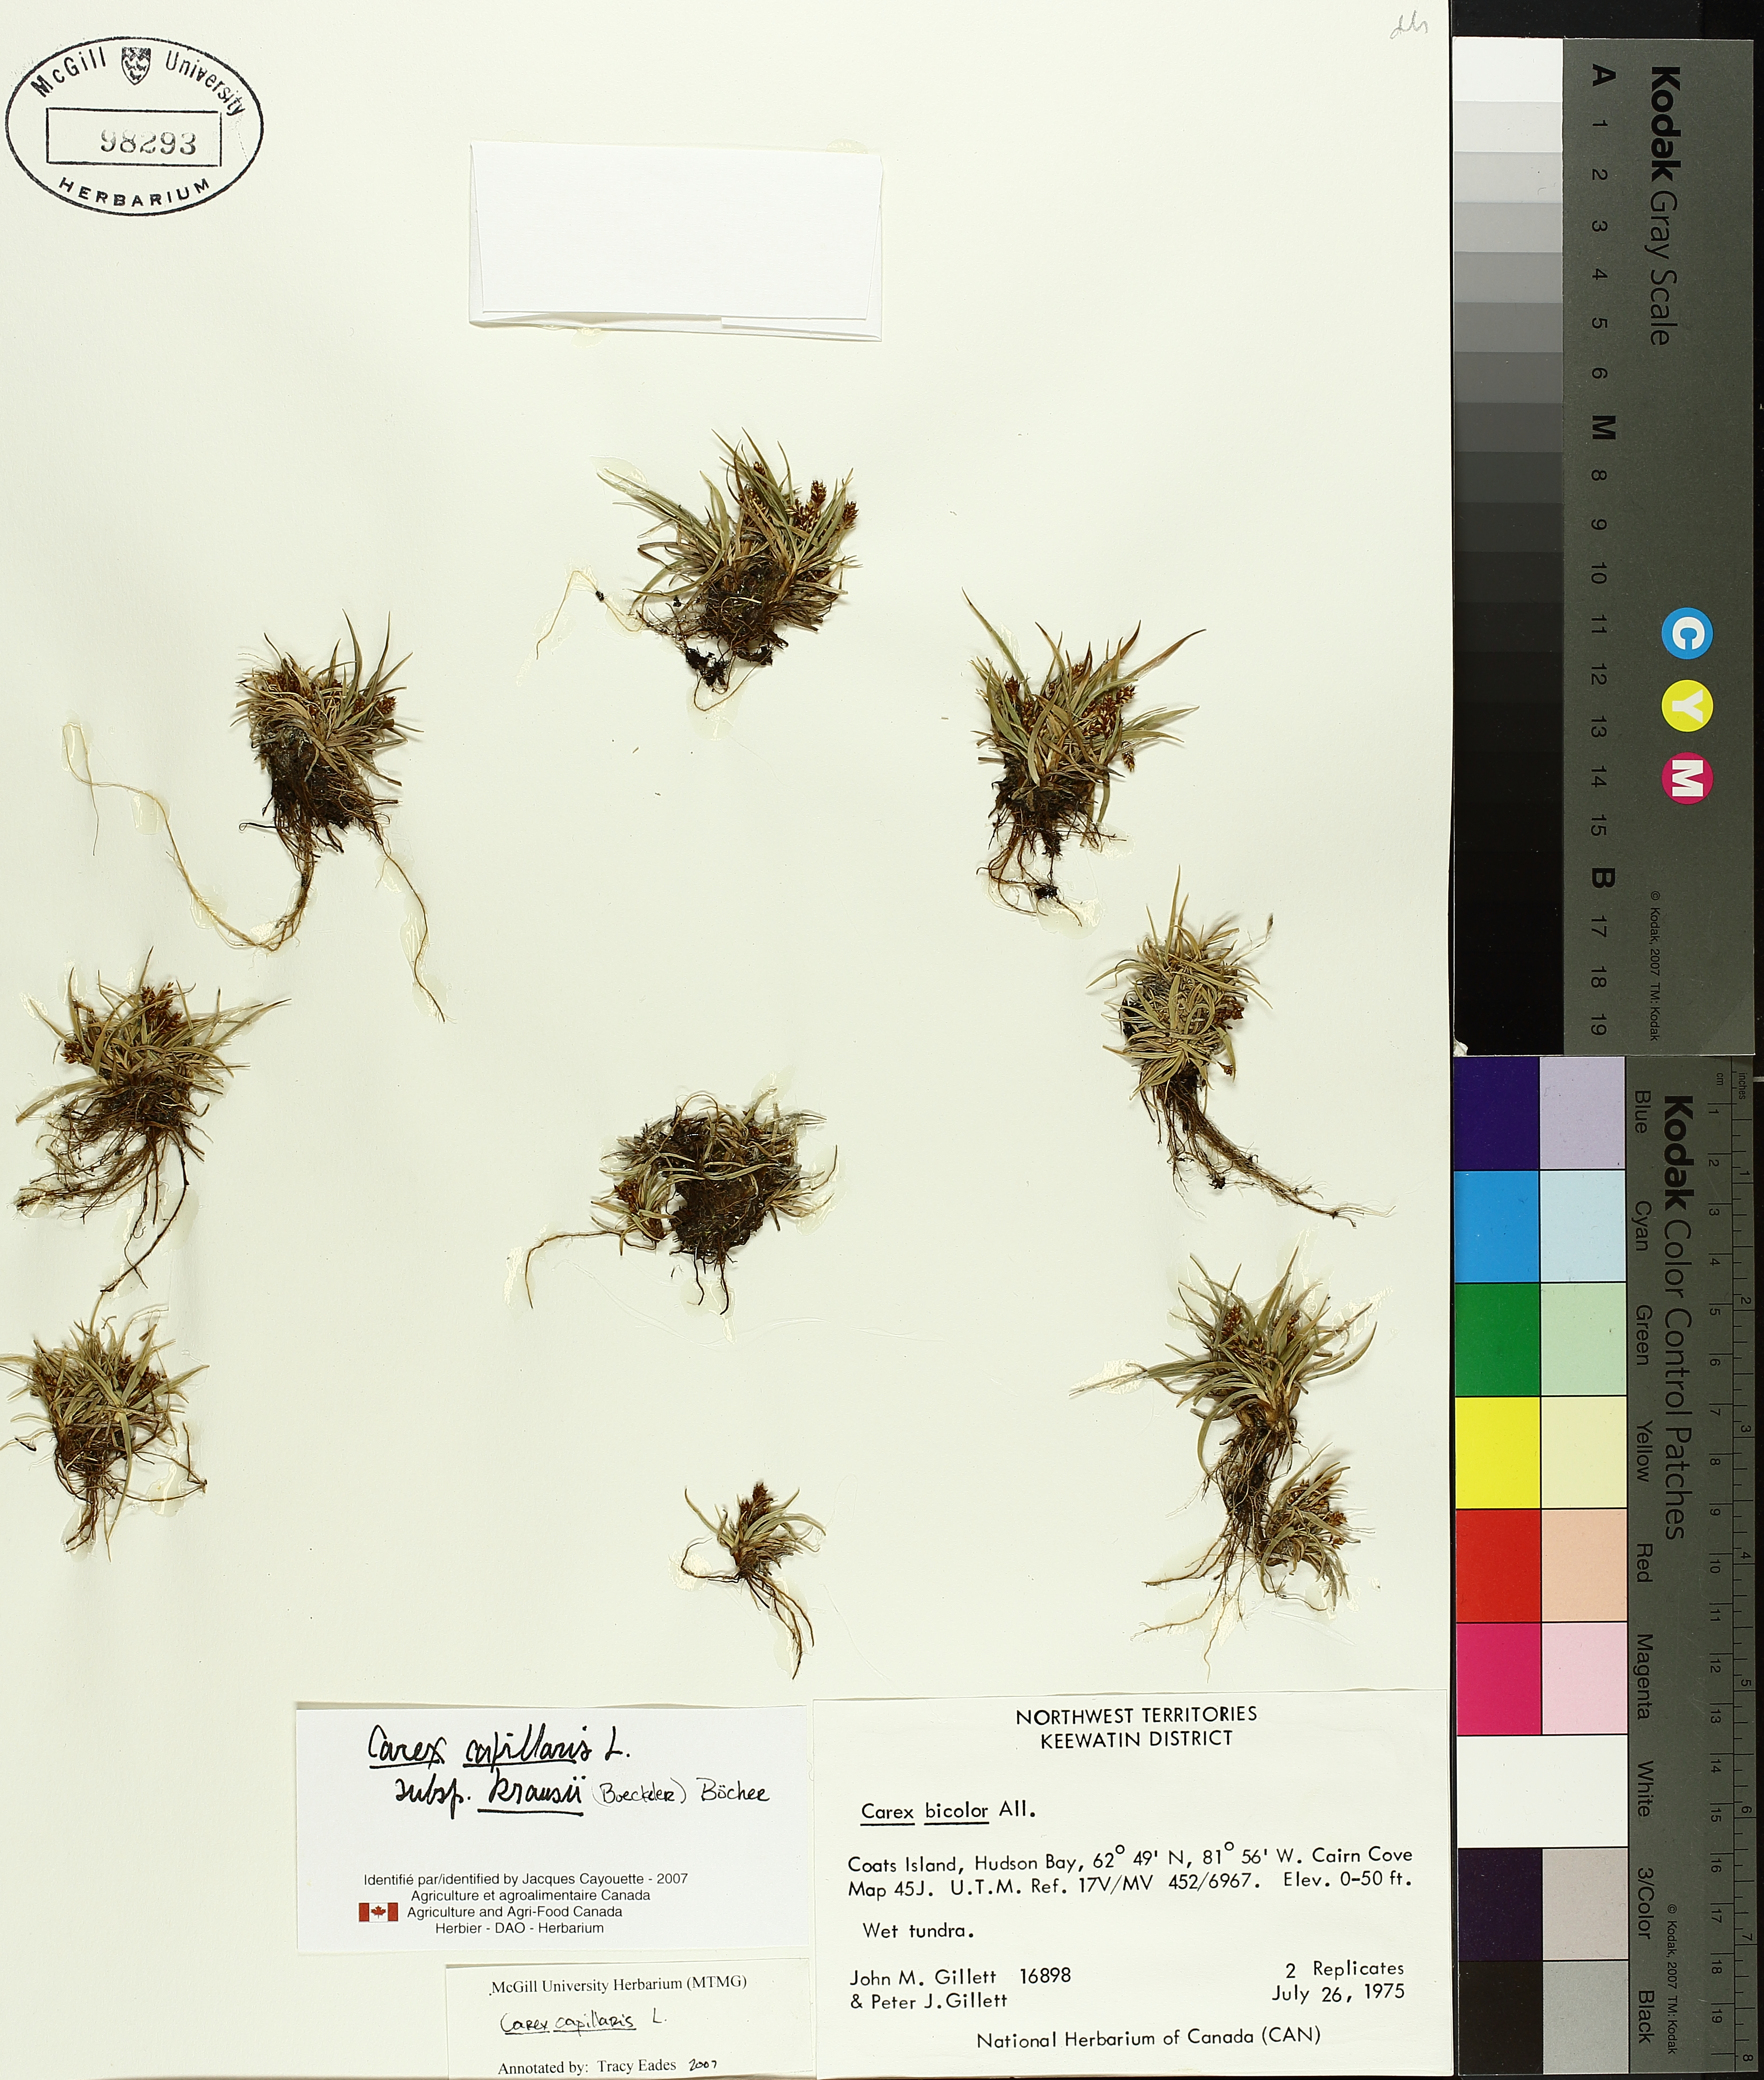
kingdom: Plantae
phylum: Tracheophyta
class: Liliopsida
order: Poales
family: Cyperaceae
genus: Carex
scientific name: Carex krausei
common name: Krause's sedge
